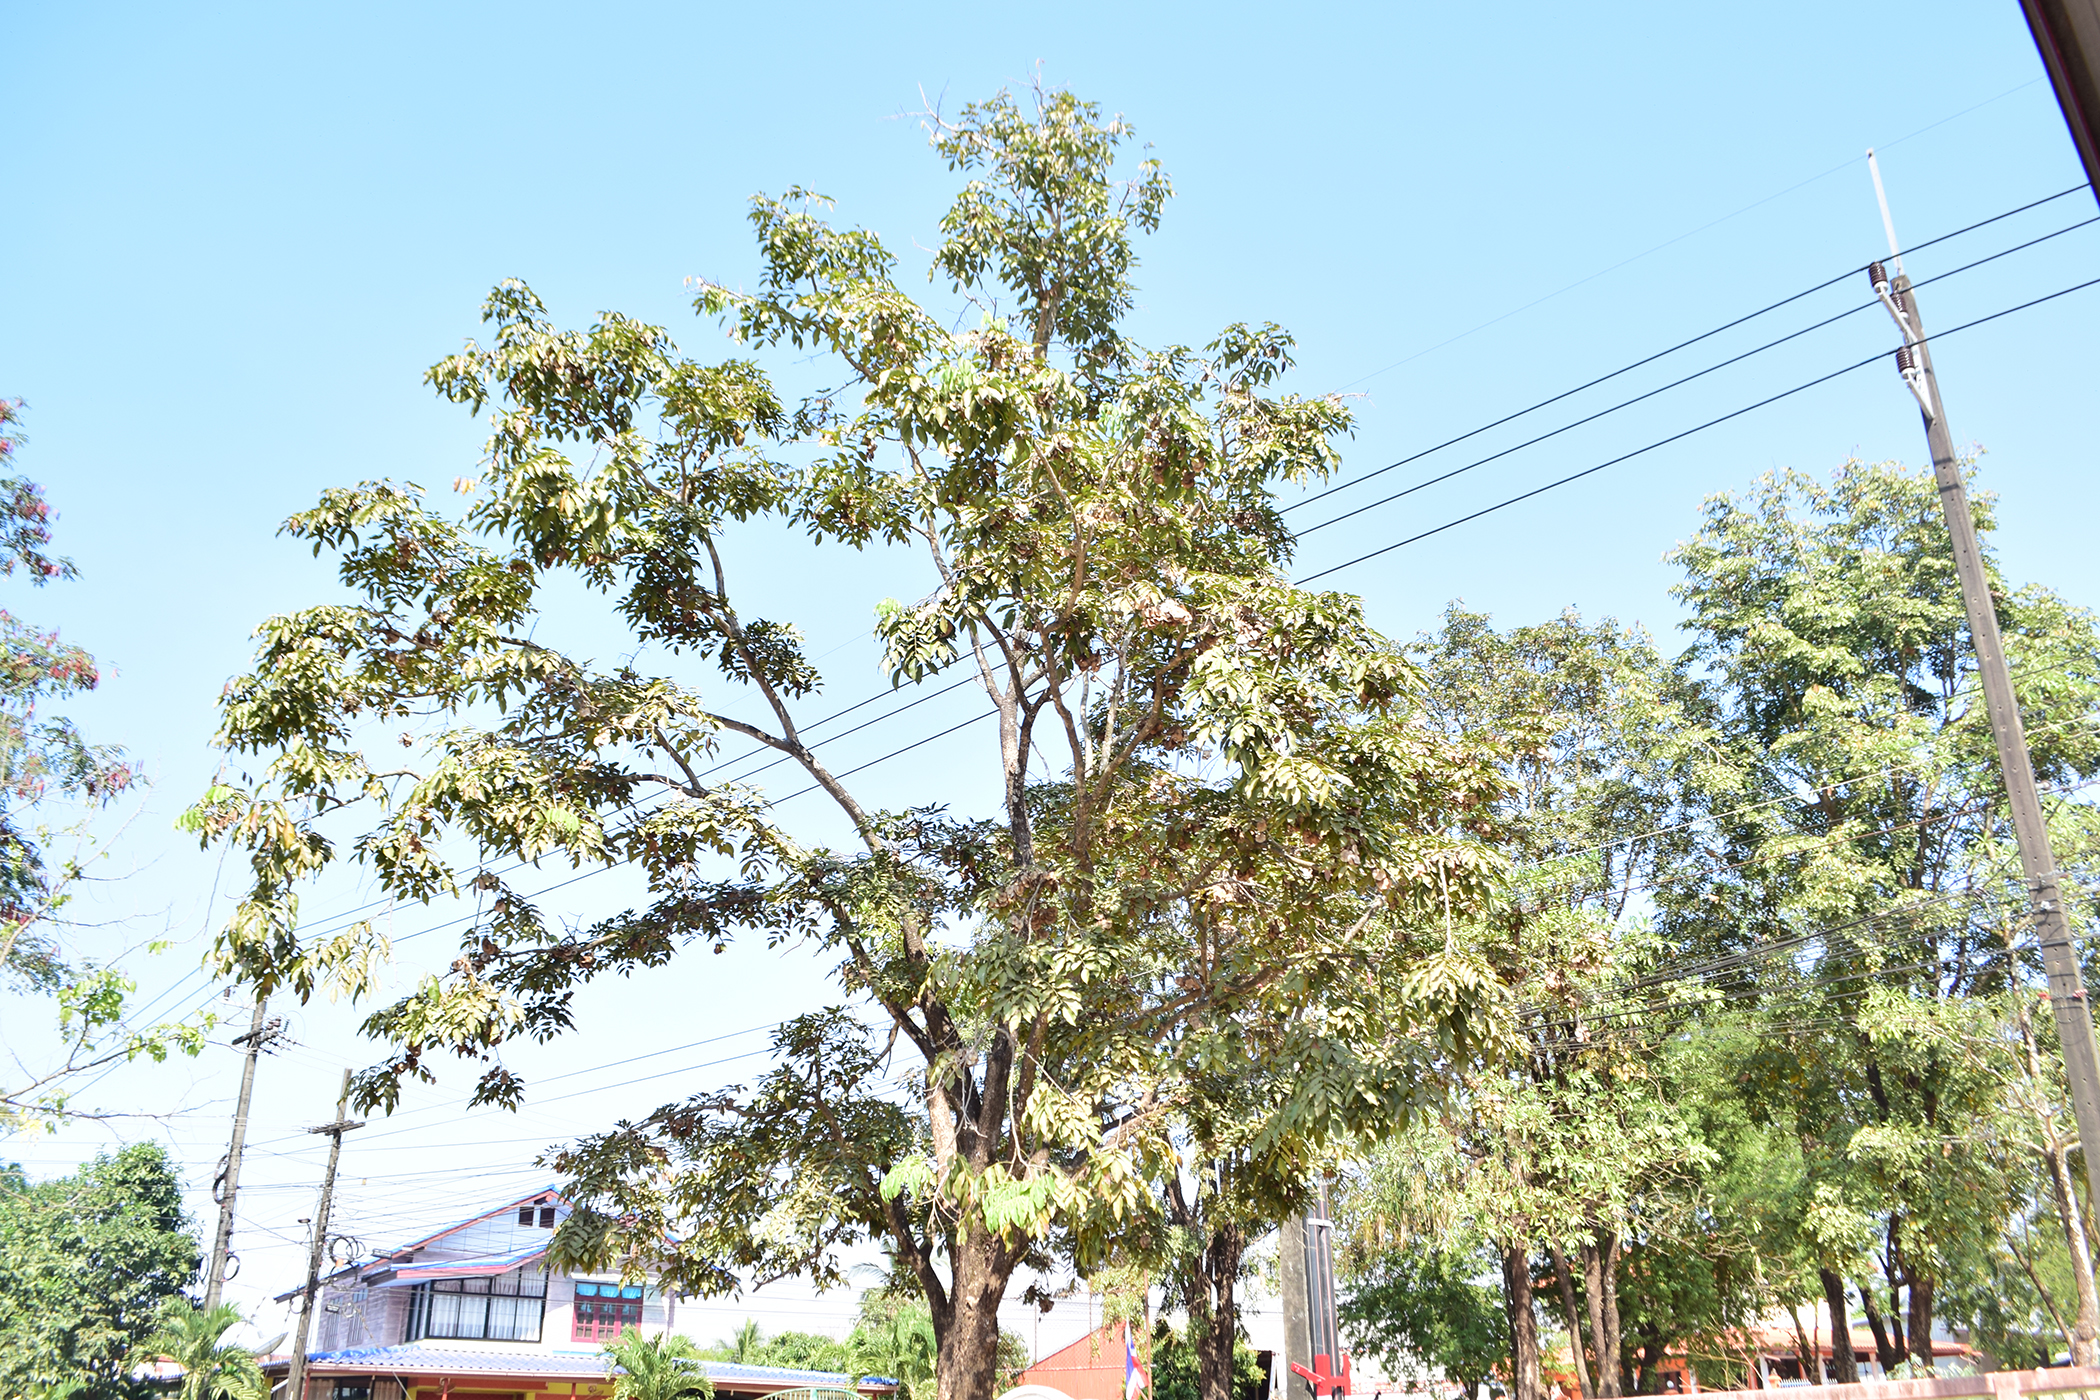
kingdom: Plantae
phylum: Tracheophyta
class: Magnoliopsida
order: Fabales
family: Fabaceae
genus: Pterocarpus
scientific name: Pterocarpus macrocarpus
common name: Burma padauk
